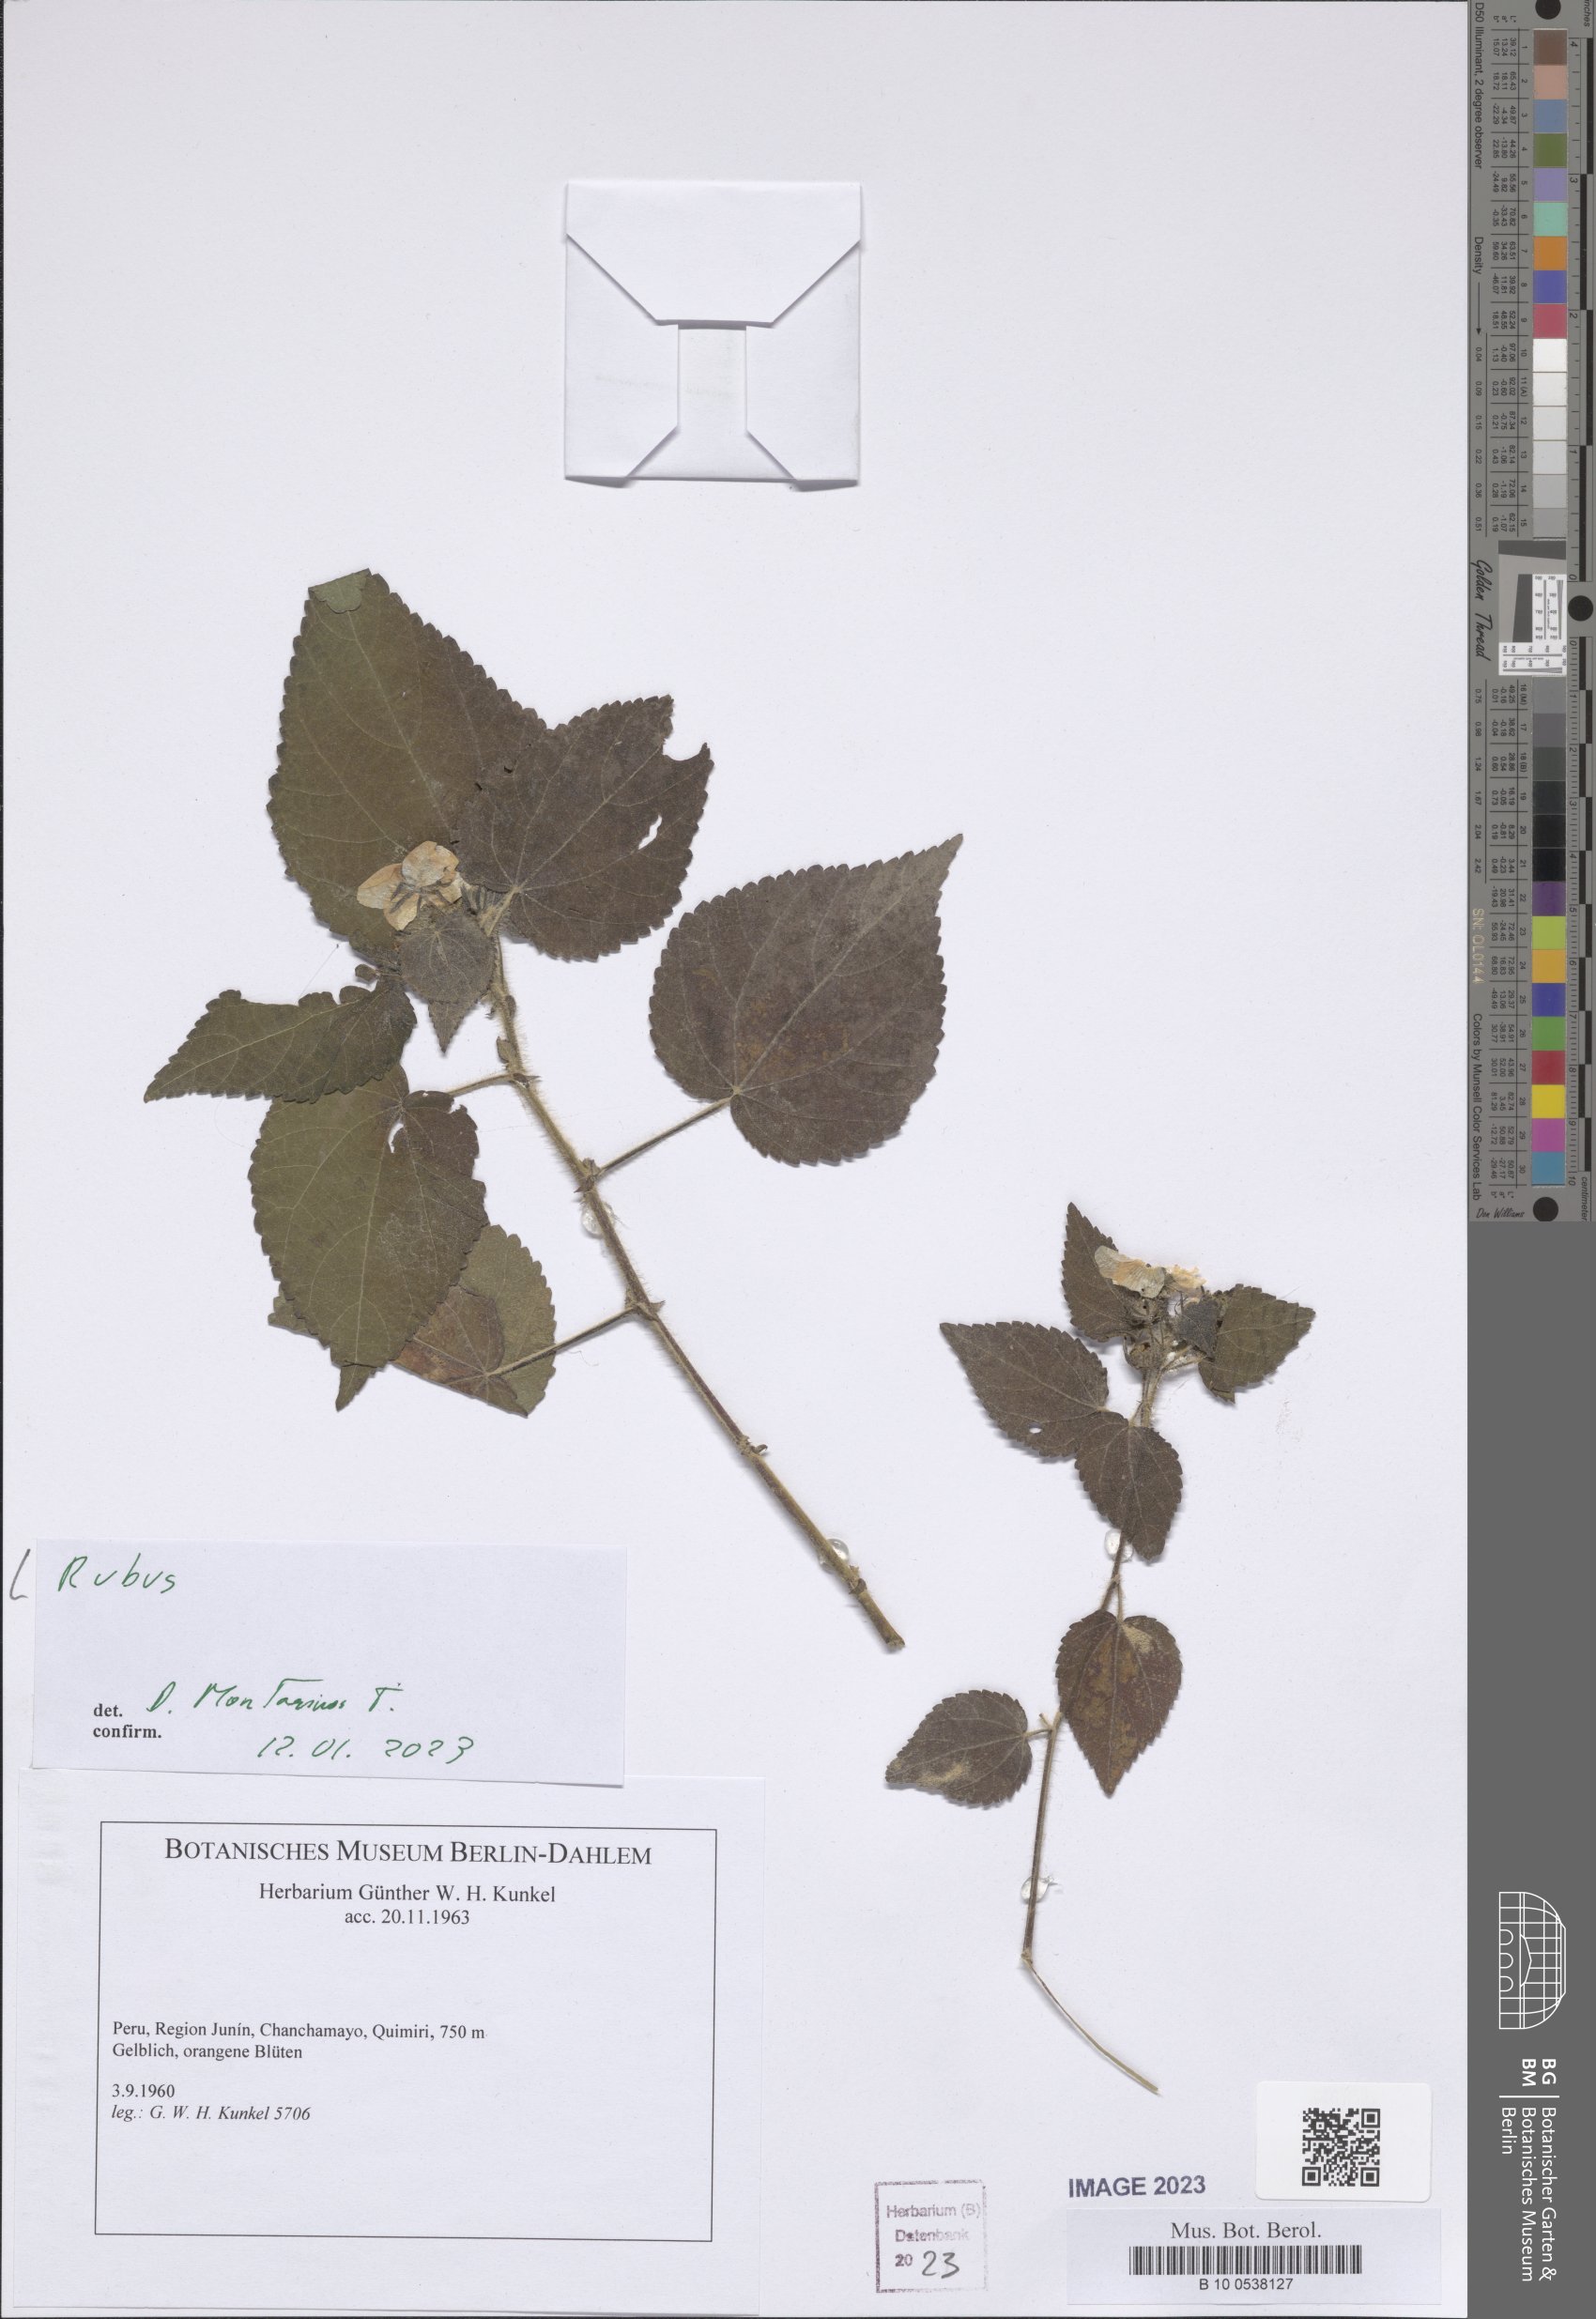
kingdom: Plantae
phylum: Tracheophyta
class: Magnoliopsida
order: Rosales
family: Rosaceae
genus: Rubus
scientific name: Rubus
